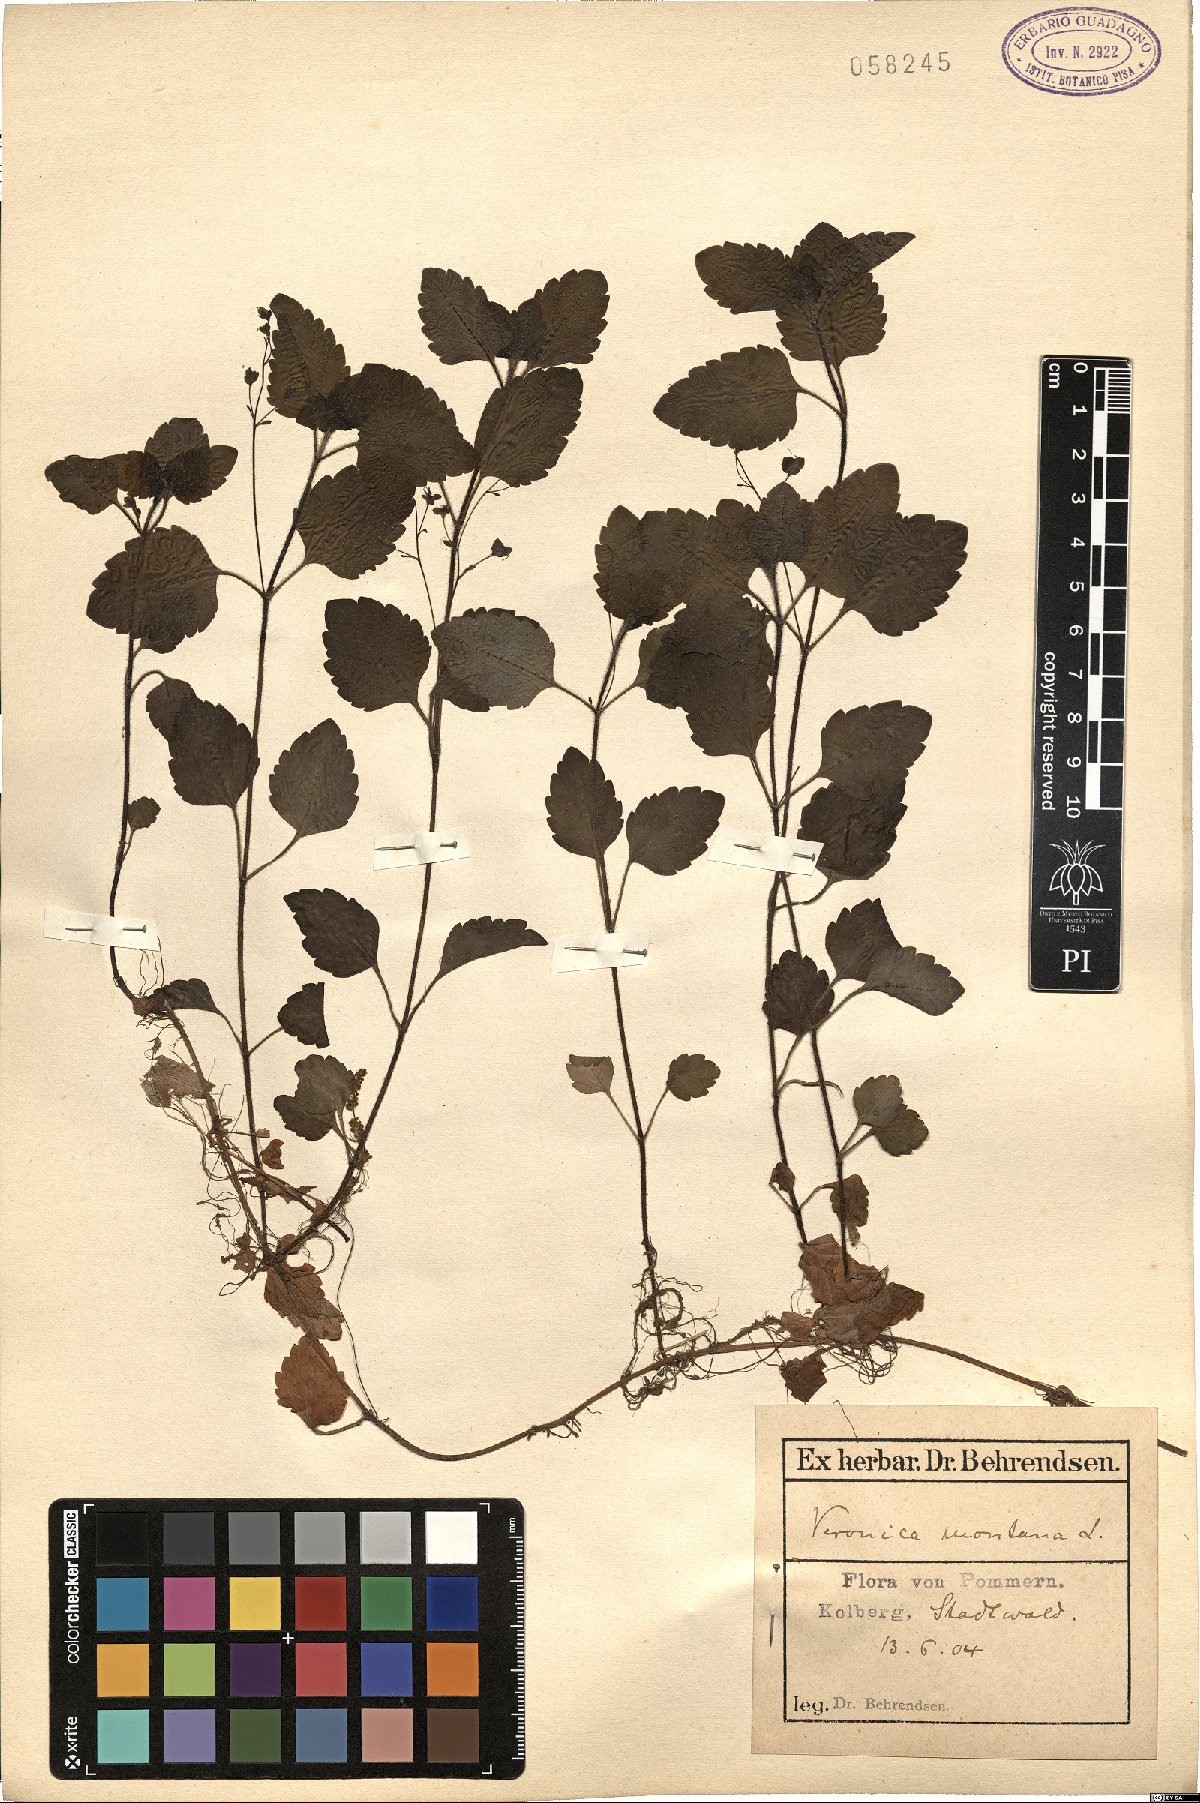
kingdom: Plantae
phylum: Tracheophyta
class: Magnoliopsida
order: Lamiales
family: Plantaginaceae
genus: Veronica
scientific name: Veronica montana
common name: Wood speedwell
